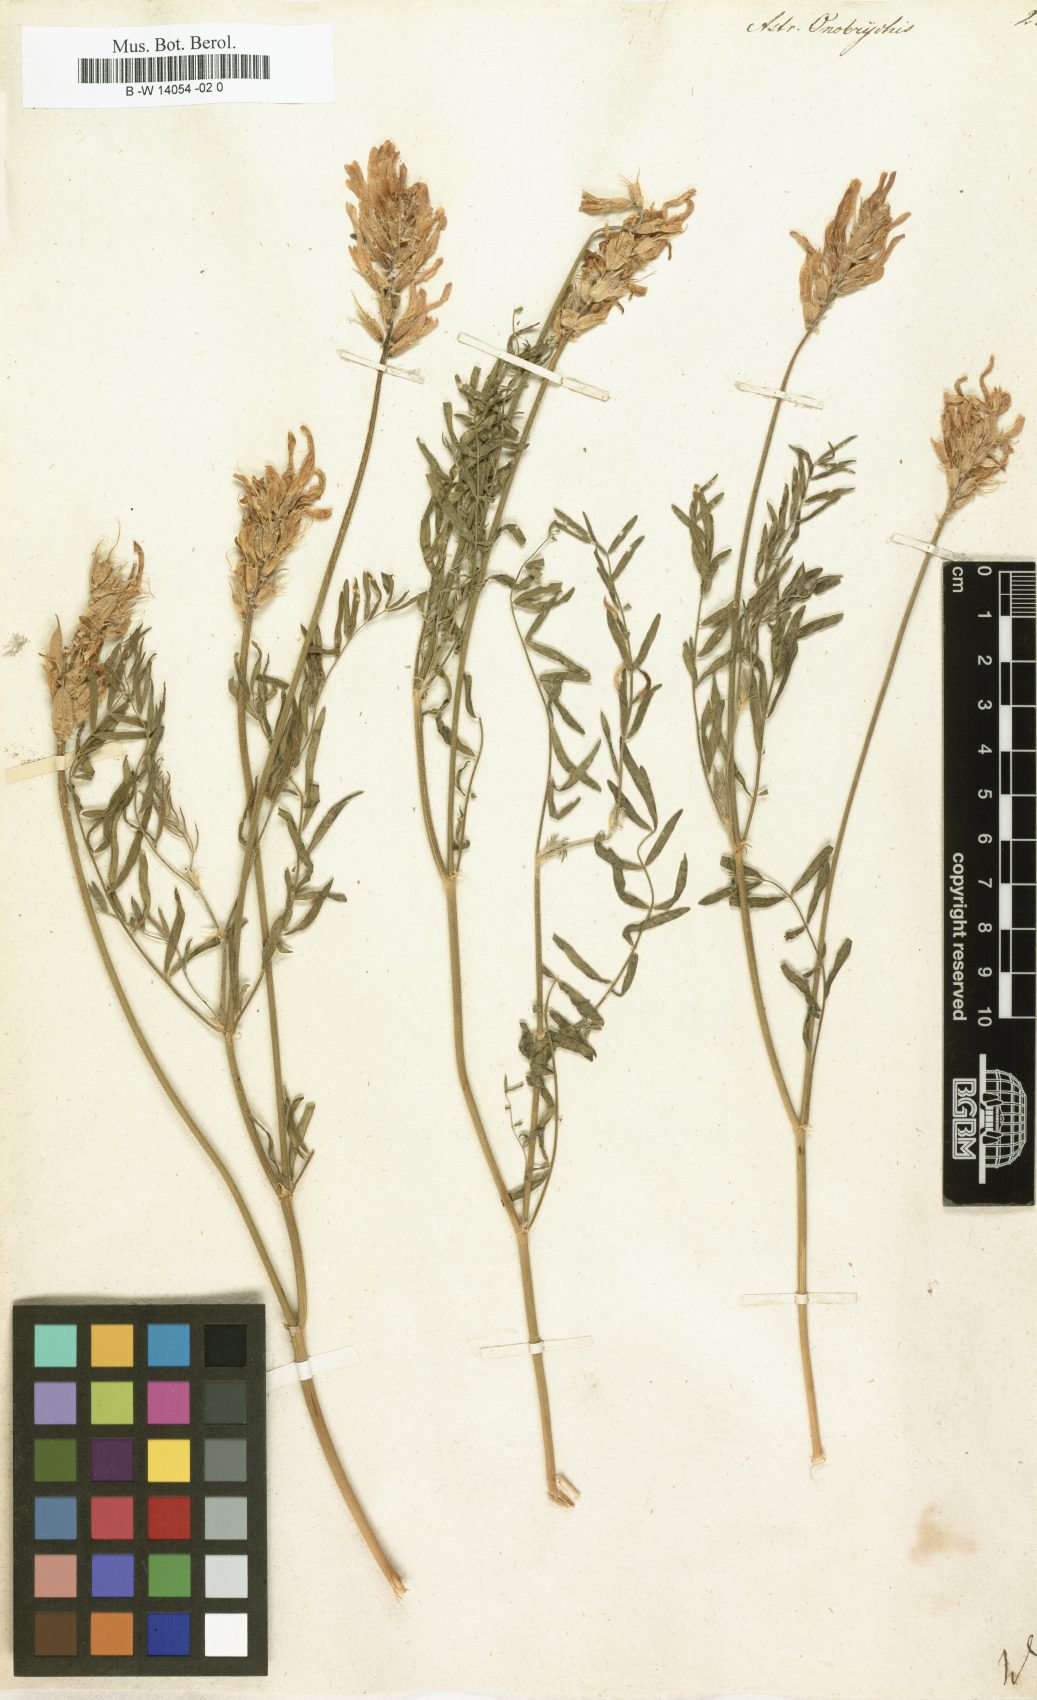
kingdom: Plantae
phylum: Tracheophyta
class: Magnoliopsida
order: Fabales
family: Fabaceae
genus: Astragalus
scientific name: Astragalus onobrychis
